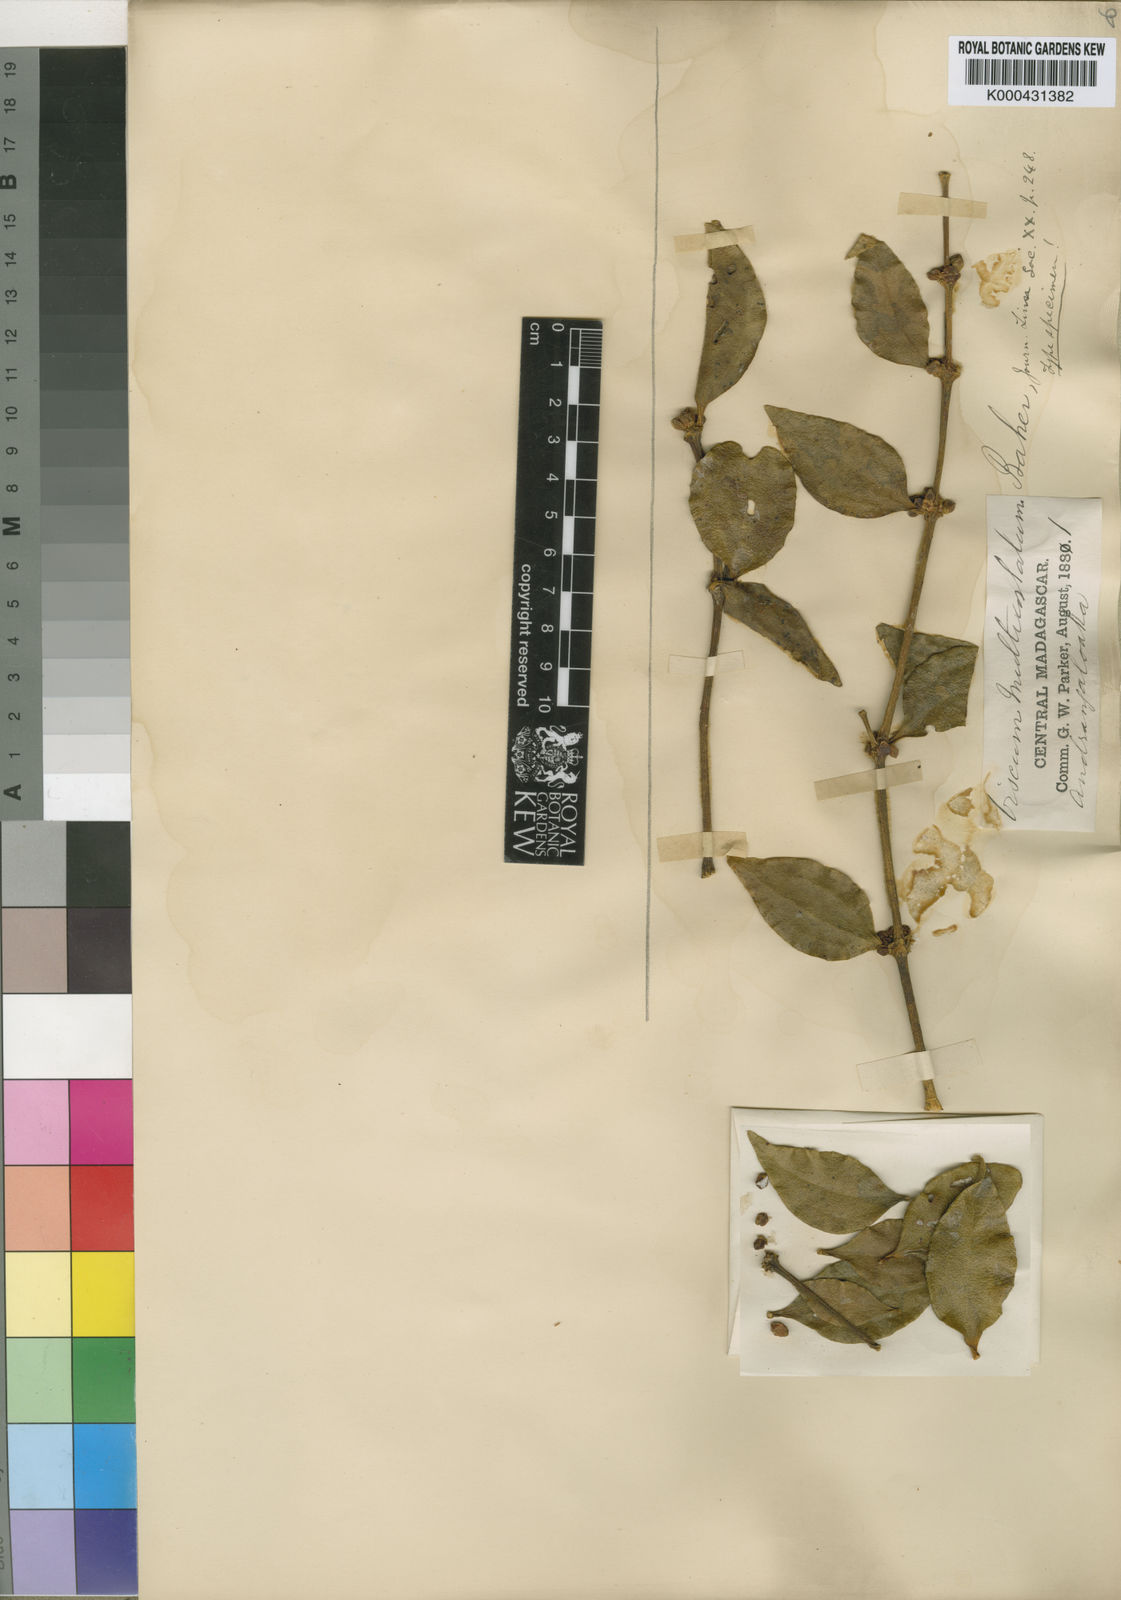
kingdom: Plantae
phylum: Tracheophyta
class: Magnoliopsida
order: Santalales
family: Viscaceae
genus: Viscum
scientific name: Viscum multicostatum
